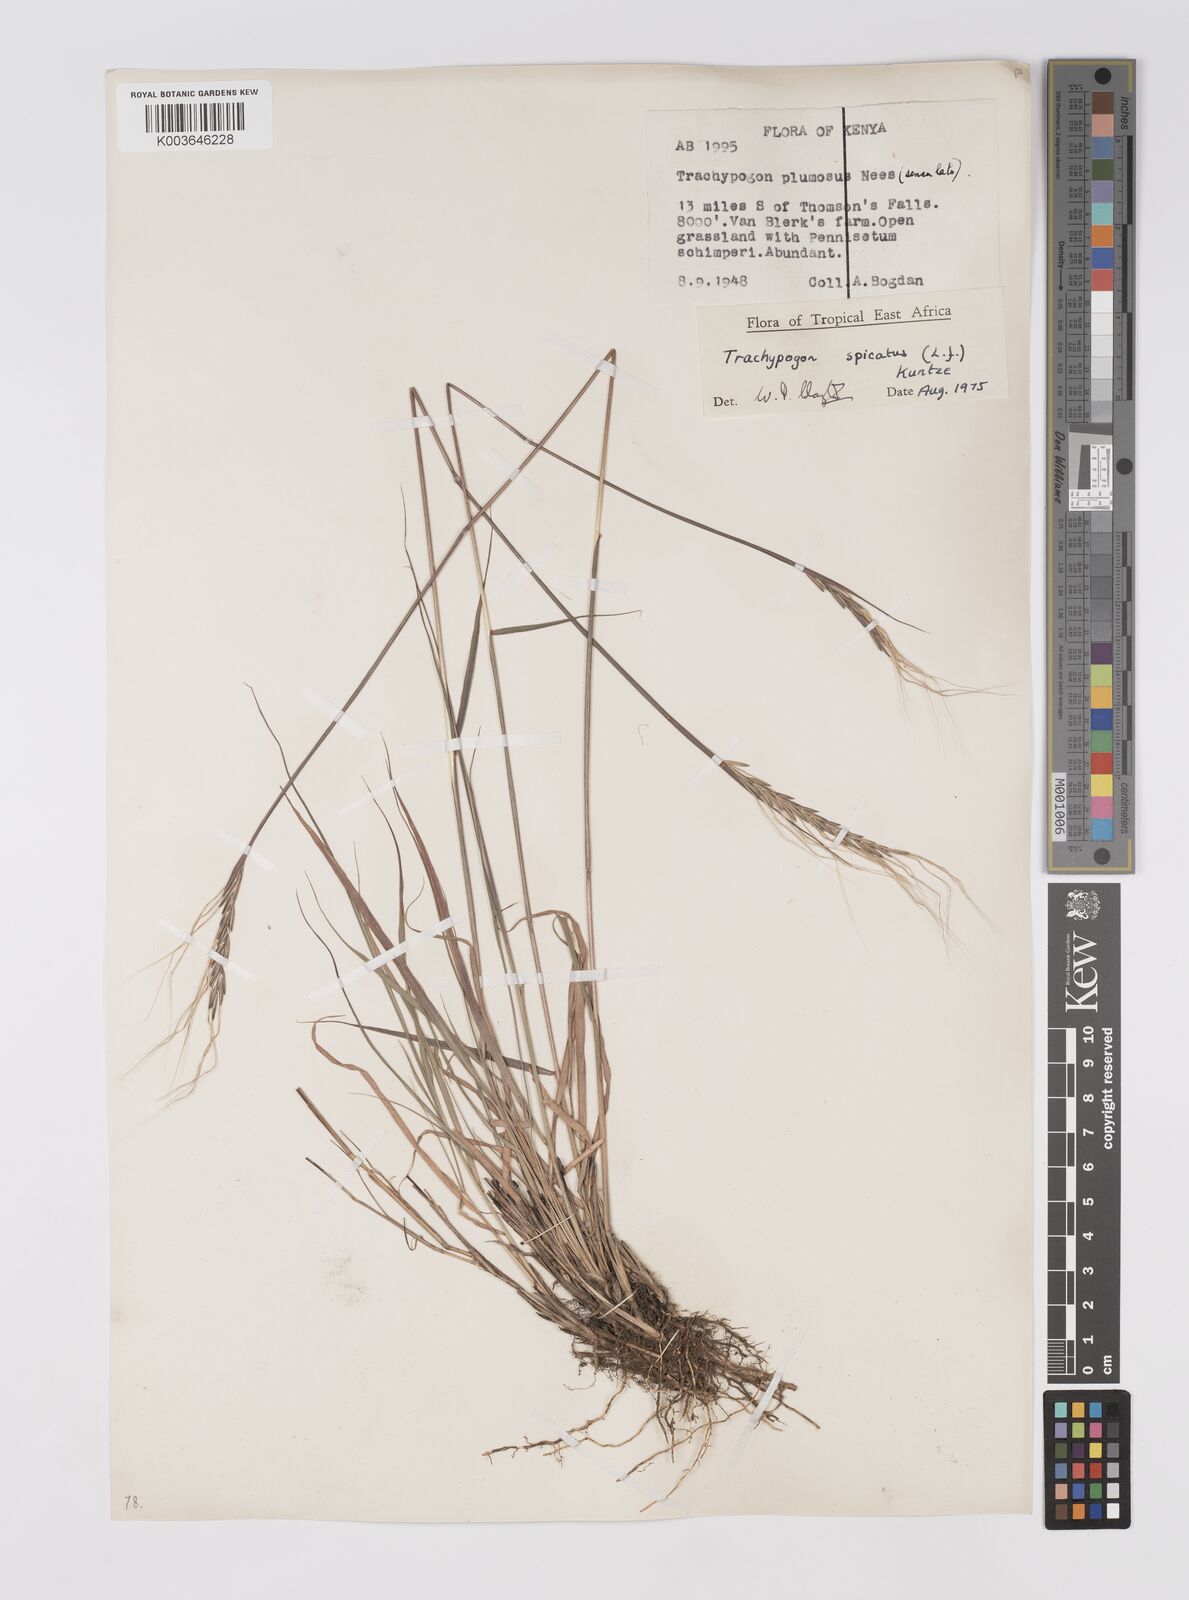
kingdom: Plantae
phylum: Tracheophyta
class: Liliopsida
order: Poales
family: Poaceae
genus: Trachypogon
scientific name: Trachypogon spicatus
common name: Crinkle-awn
